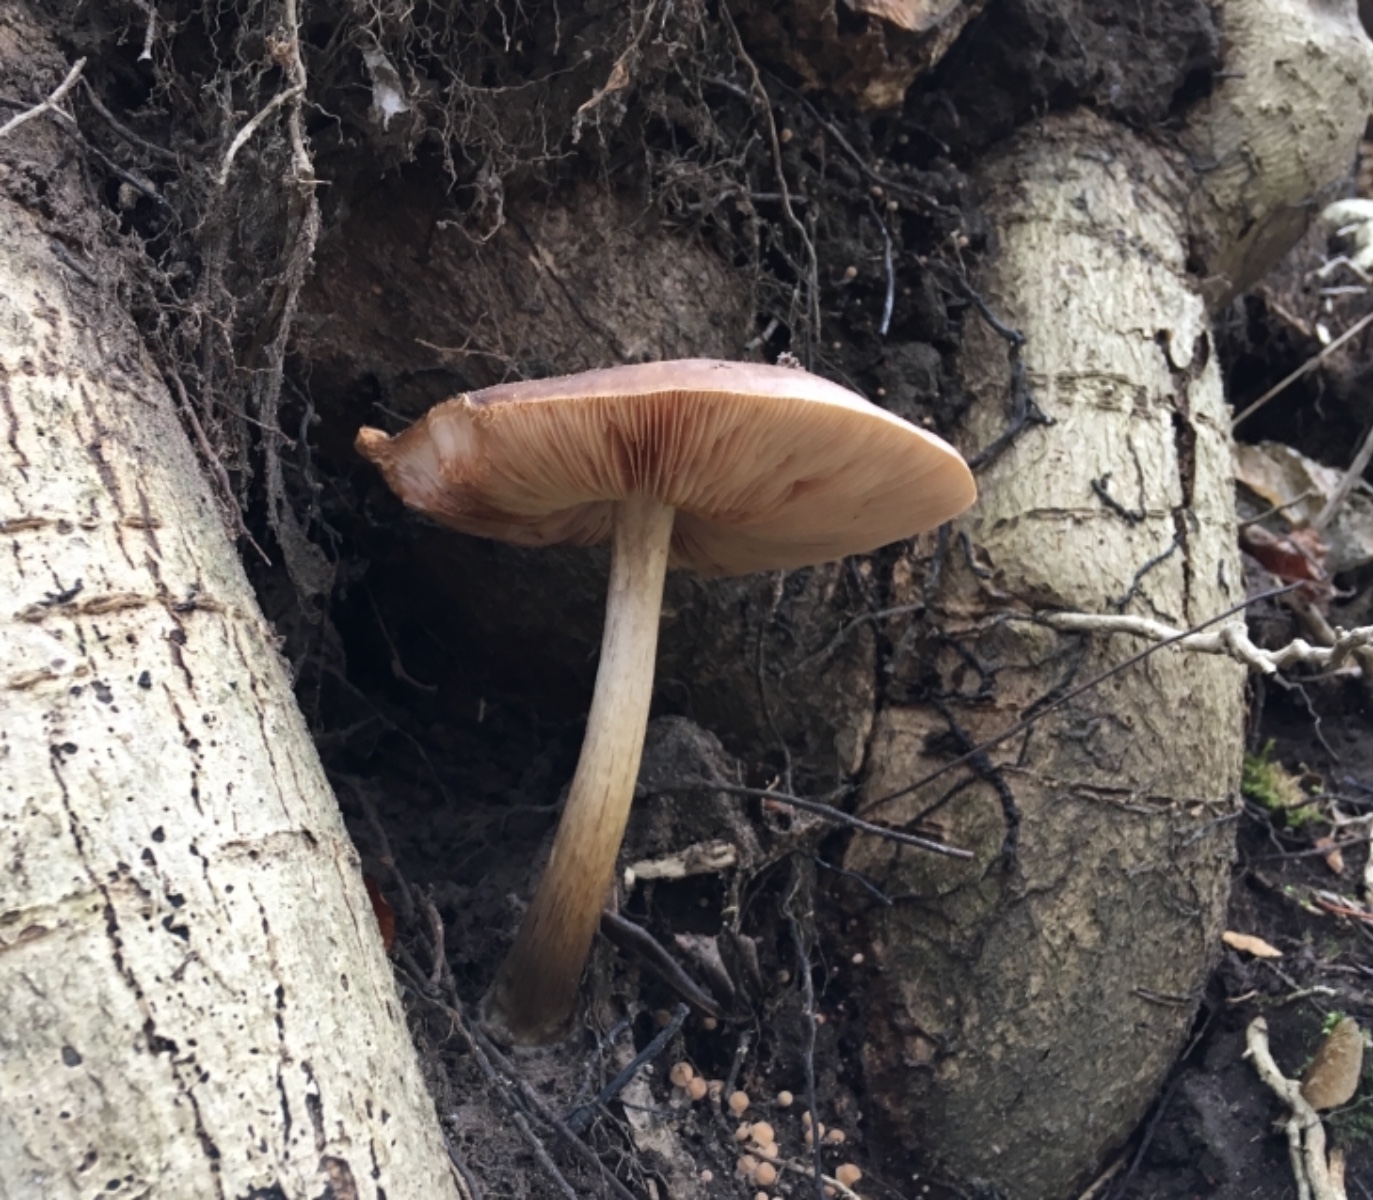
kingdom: Fungi
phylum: Basidiomycota
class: Agaricomycetes
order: Agaricales
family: Pluteaceae
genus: Pluteus
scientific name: Pluteus cervinus
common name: sodfarvet skærmhat
